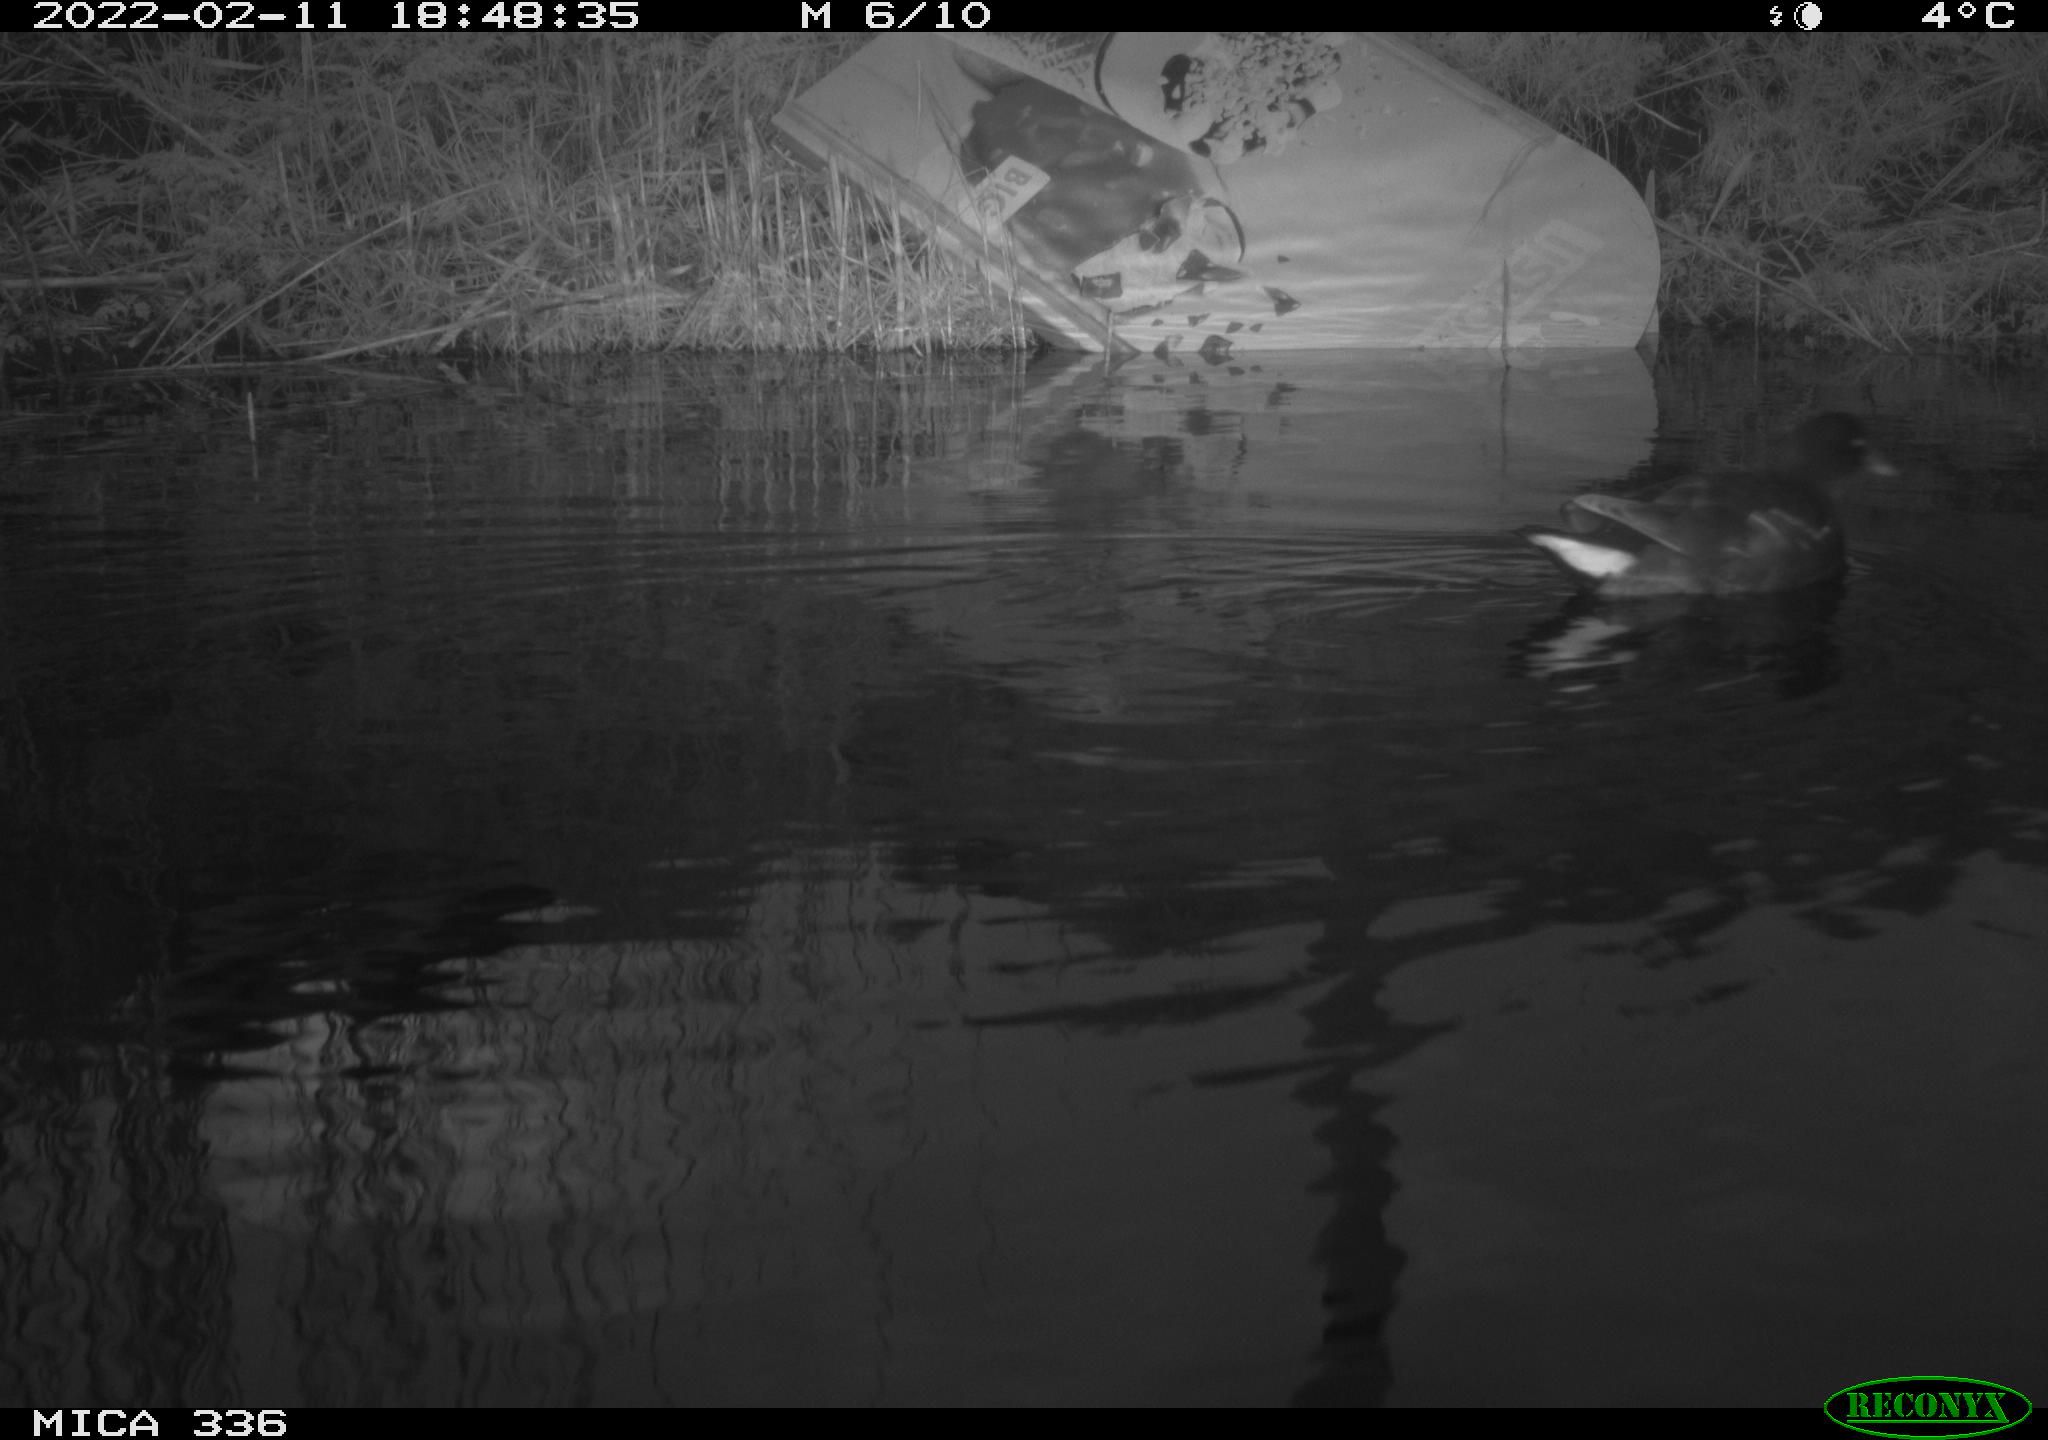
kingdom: Animalia
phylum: Chordata
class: Aves
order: Gruiformes
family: Rallidae
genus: Gallinula
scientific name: Gallinula chloropus
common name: Common moorhen
